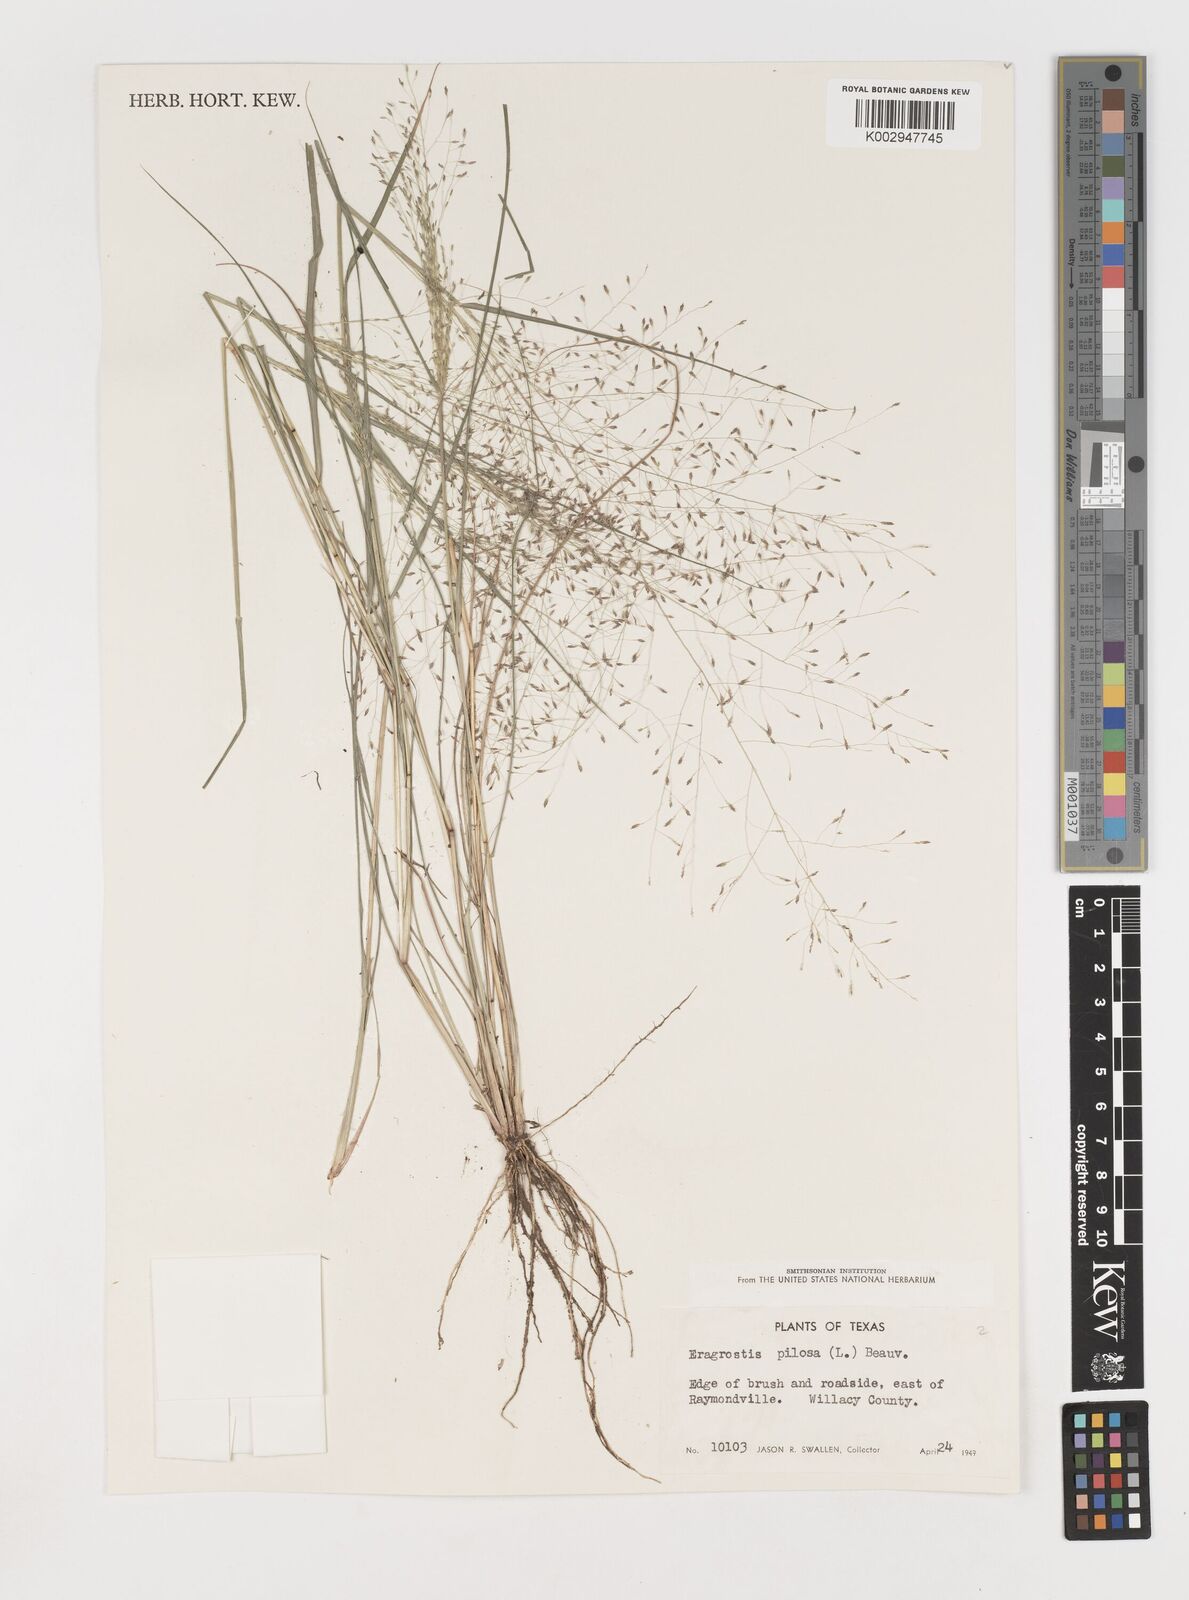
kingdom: Plantae
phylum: Tracheophyta
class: Liliopsida
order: Poales
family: Poaceae
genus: Eragrostis
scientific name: Eragrostis pilosa
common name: Indian lovegrass
